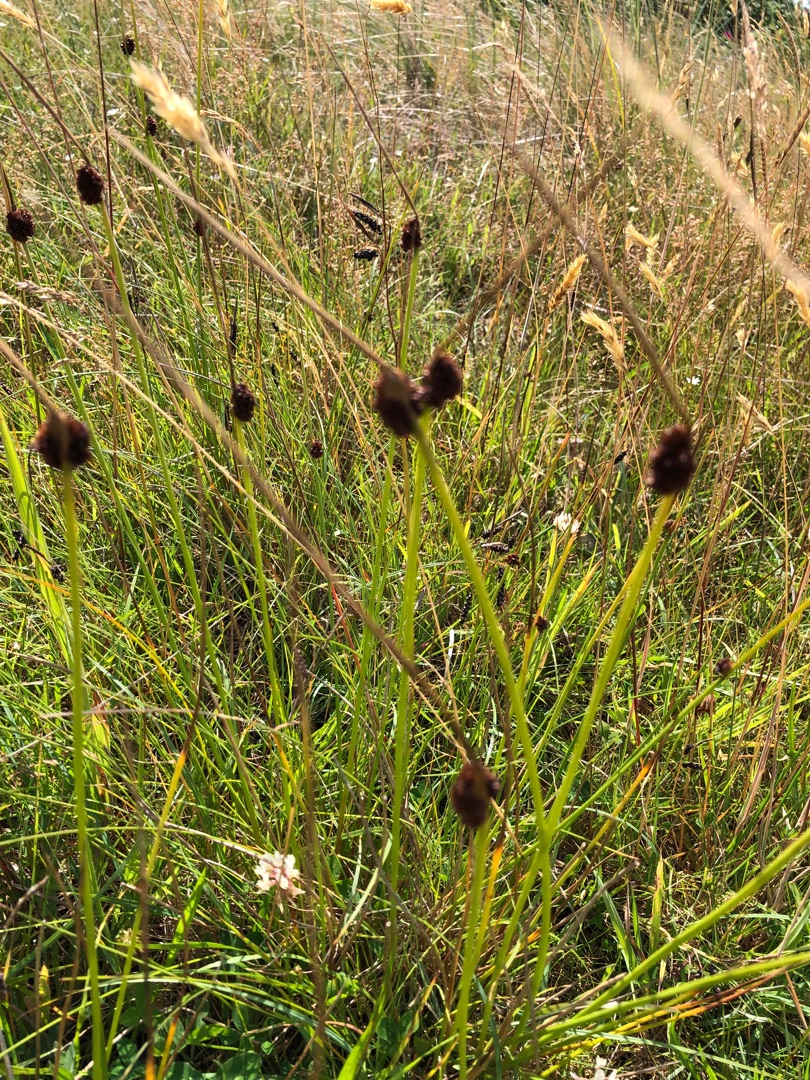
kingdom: Plantae
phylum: Tracheophyta
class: Liliopsida
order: Poales
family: Juncaceae
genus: Juncus
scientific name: Juncus conglomeratus
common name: Knop-siv
